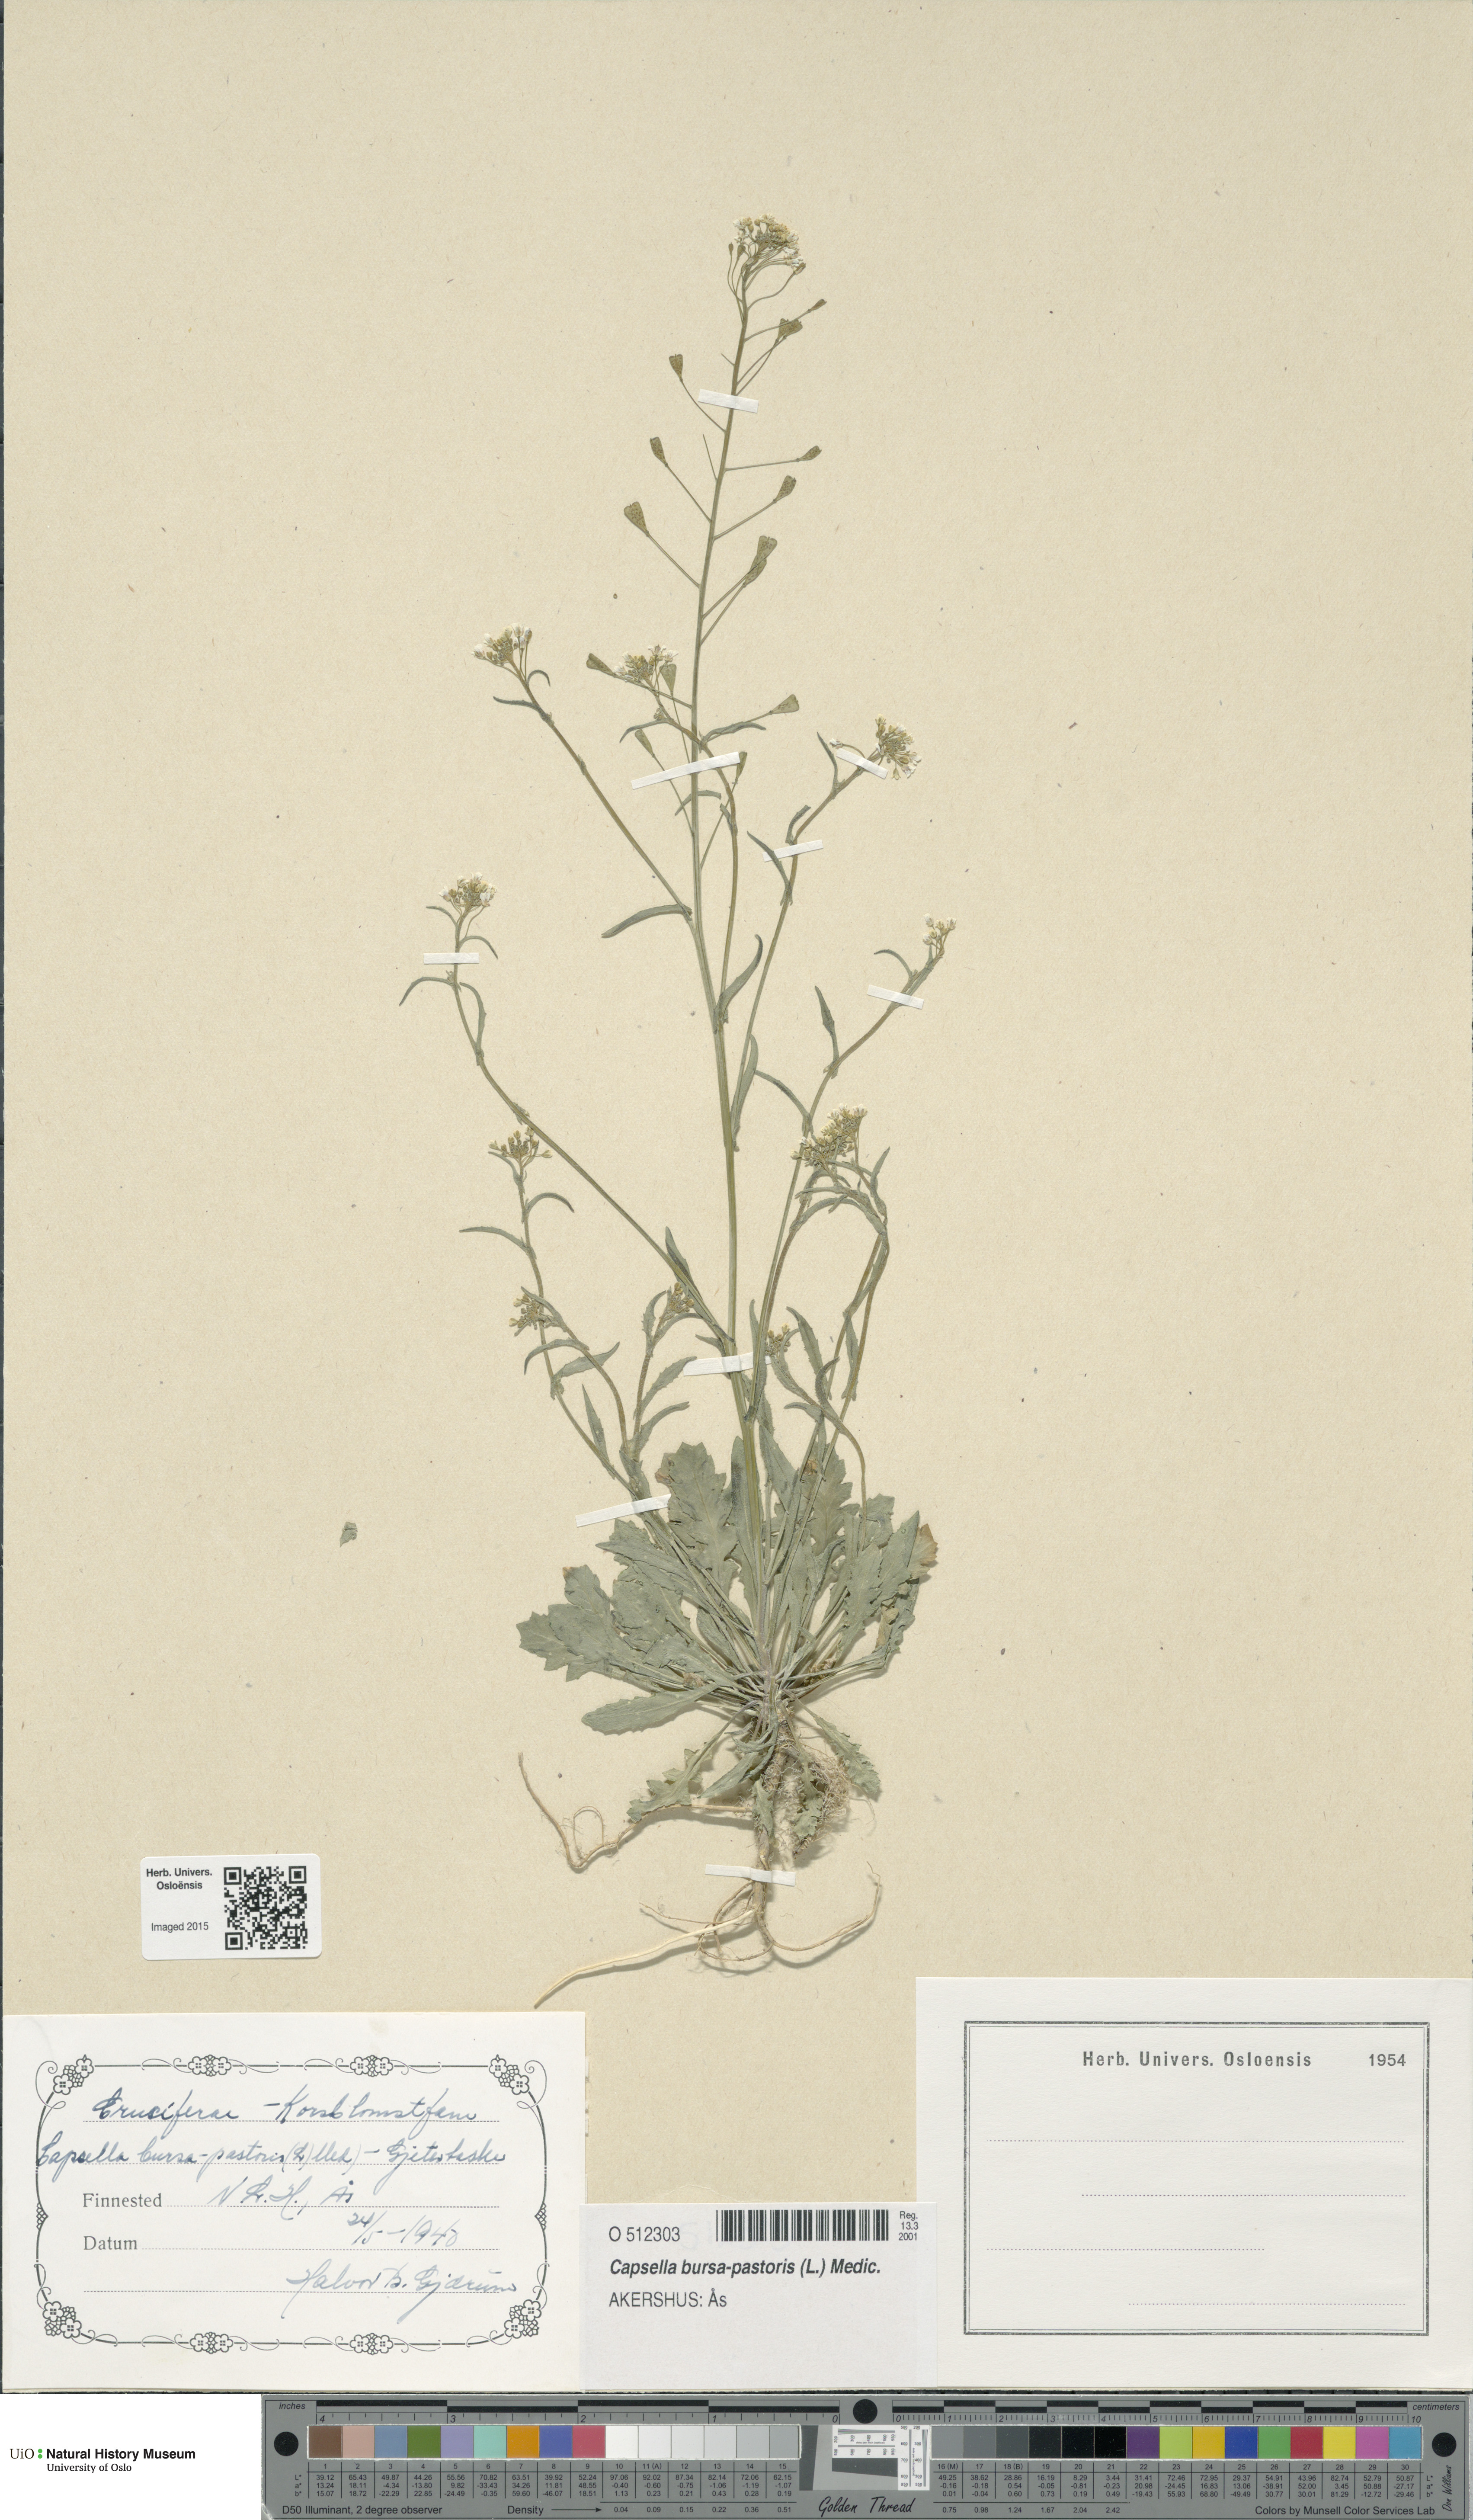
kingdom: Plantae
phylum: Tracheophyta
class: Magnoliopsida
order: Brassicales
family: Brassicaceae
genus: Capsella
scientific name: Capsella bursa-pastoris
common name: Shepherd's purse
